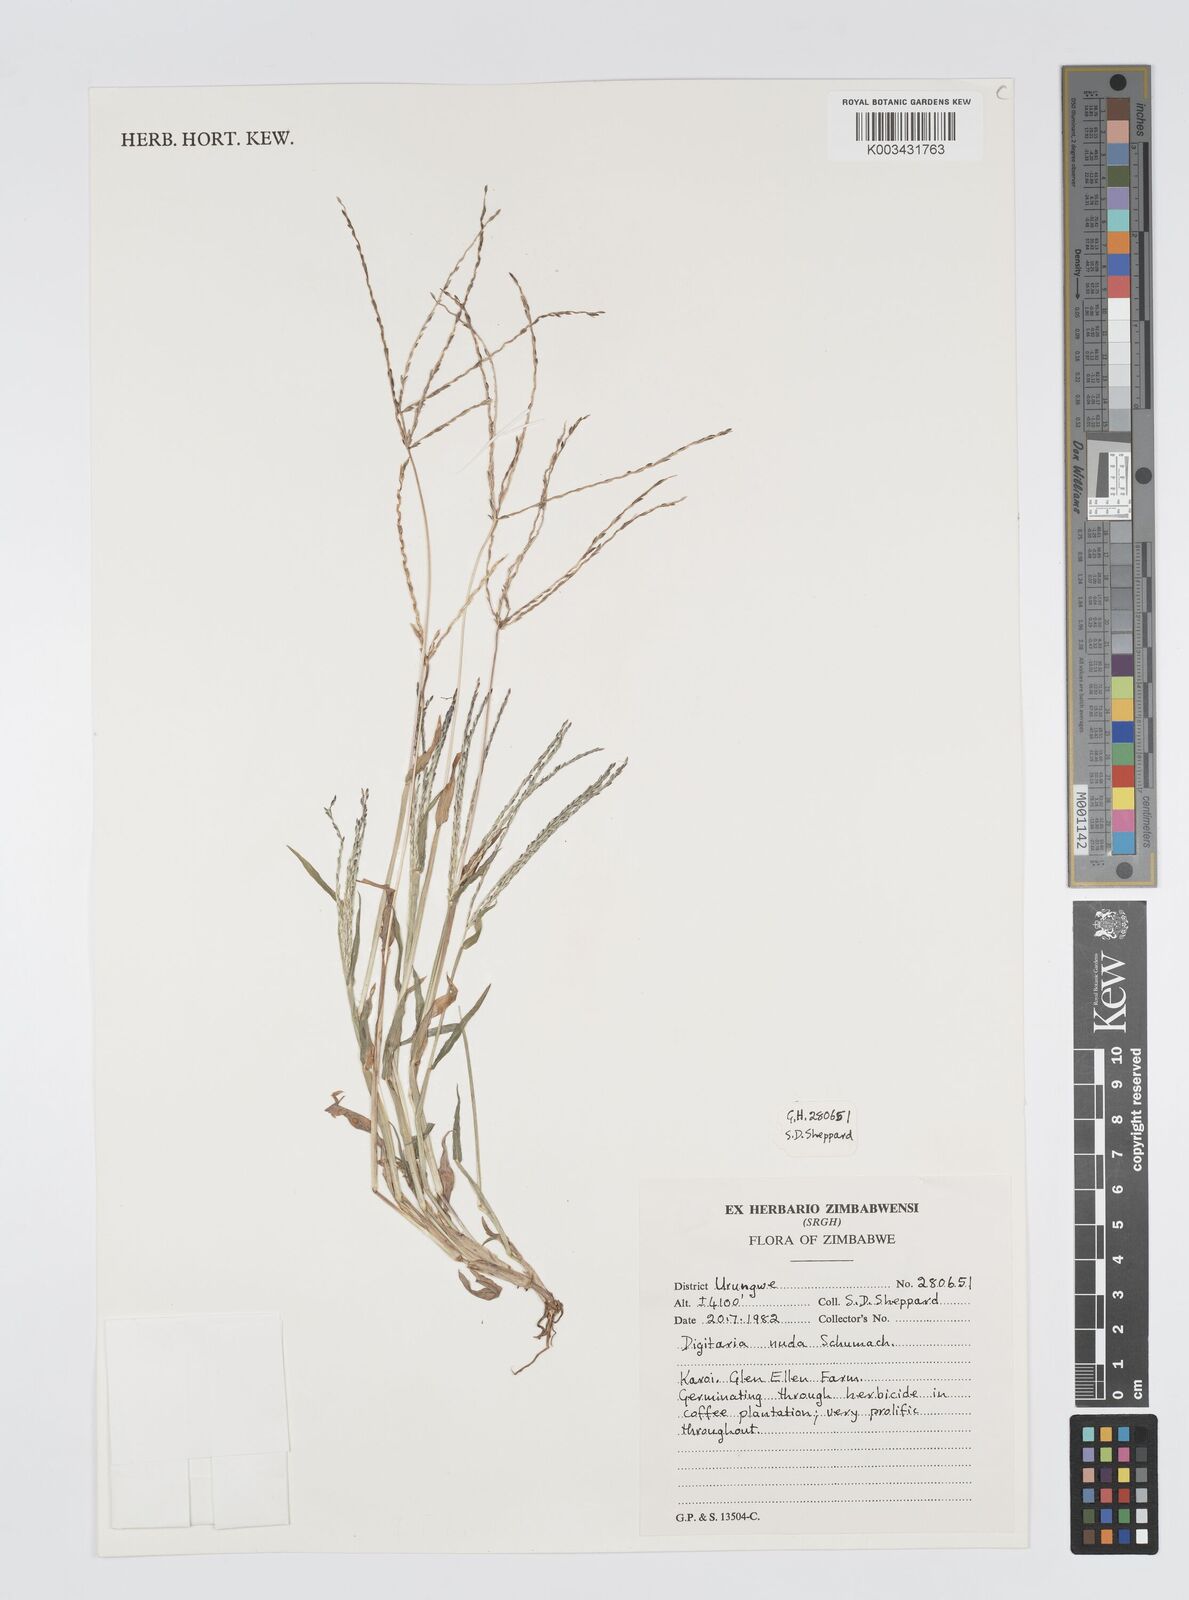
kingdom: Plantae
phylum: Tracheophyta
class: Liliopsida
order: Poales
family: Poaceae
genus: Digitaria
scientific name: Digitaria nuda
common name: Naked crabgrass
